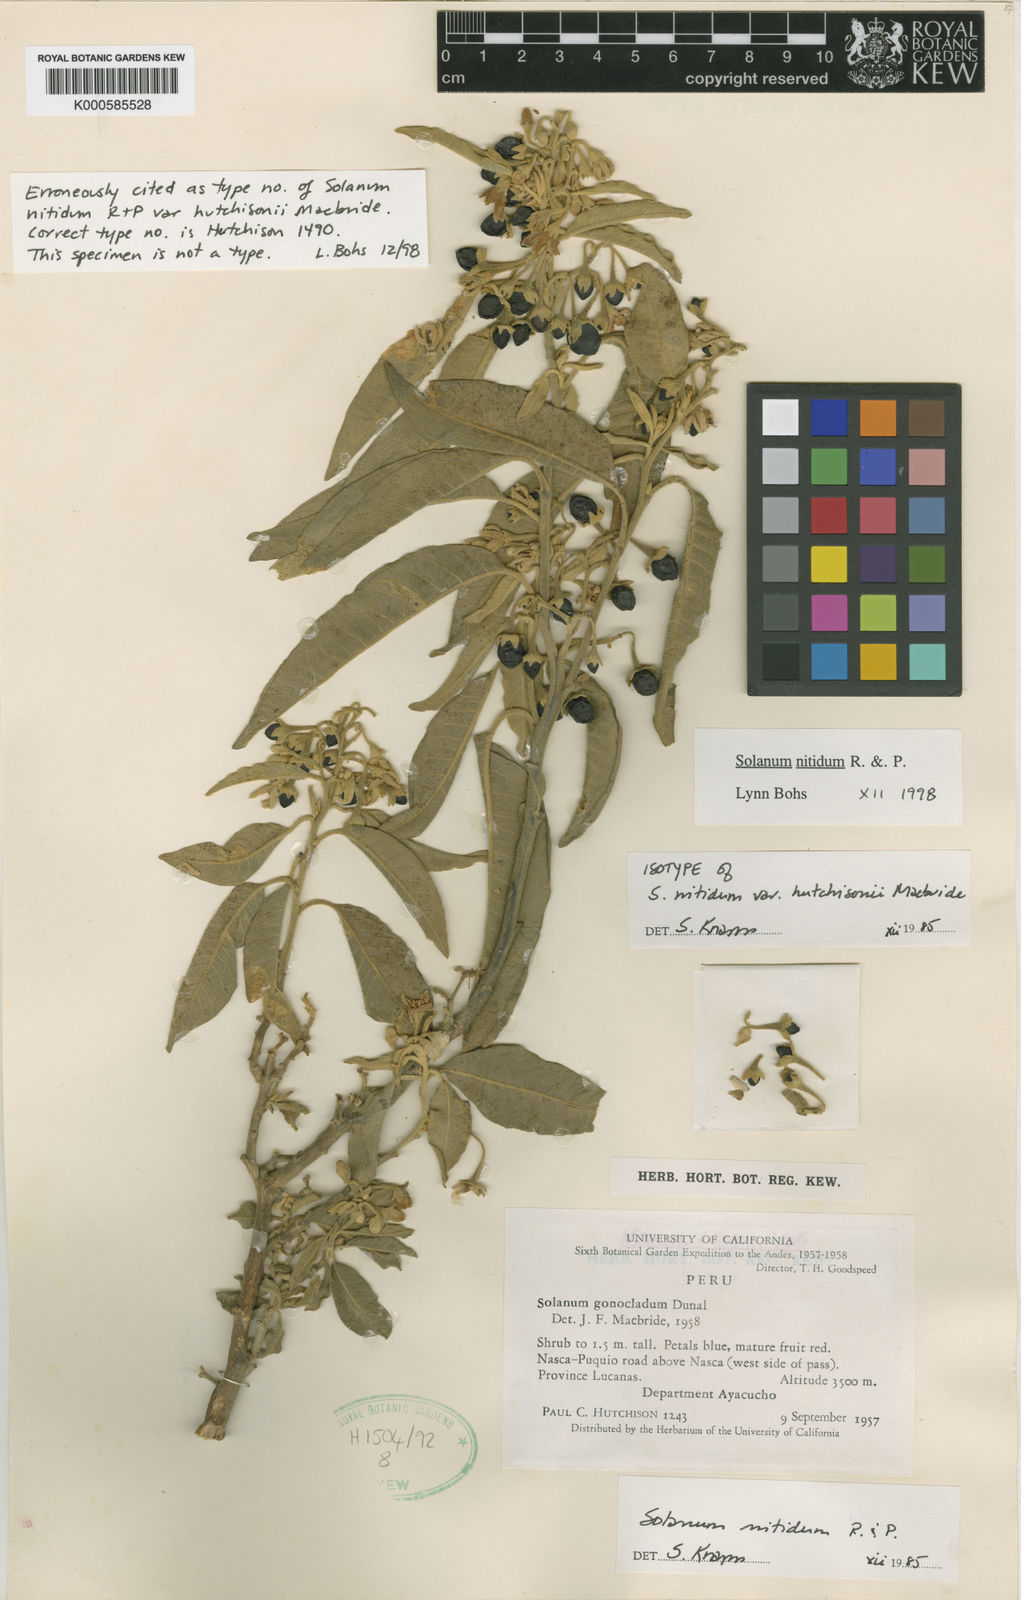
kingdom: Plantae
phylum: Tracheophyta
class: Magnoliopsida
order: Solanales
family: Solanaceae
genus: Solanum
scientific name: Solanum hutchisonii
